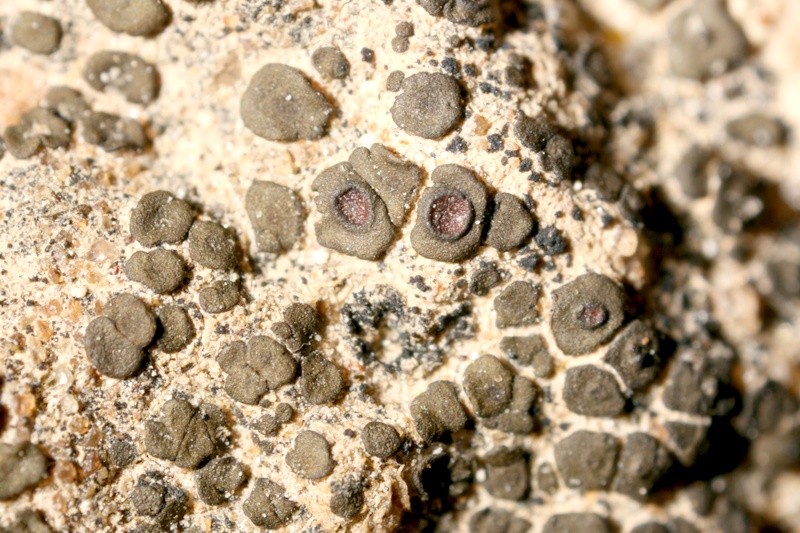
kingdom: Fungi
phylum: Ascomycota
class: Lichinomycetes
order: Lichinales
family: Peltulaceae
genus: Peltula
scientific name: Peltula obscurans
